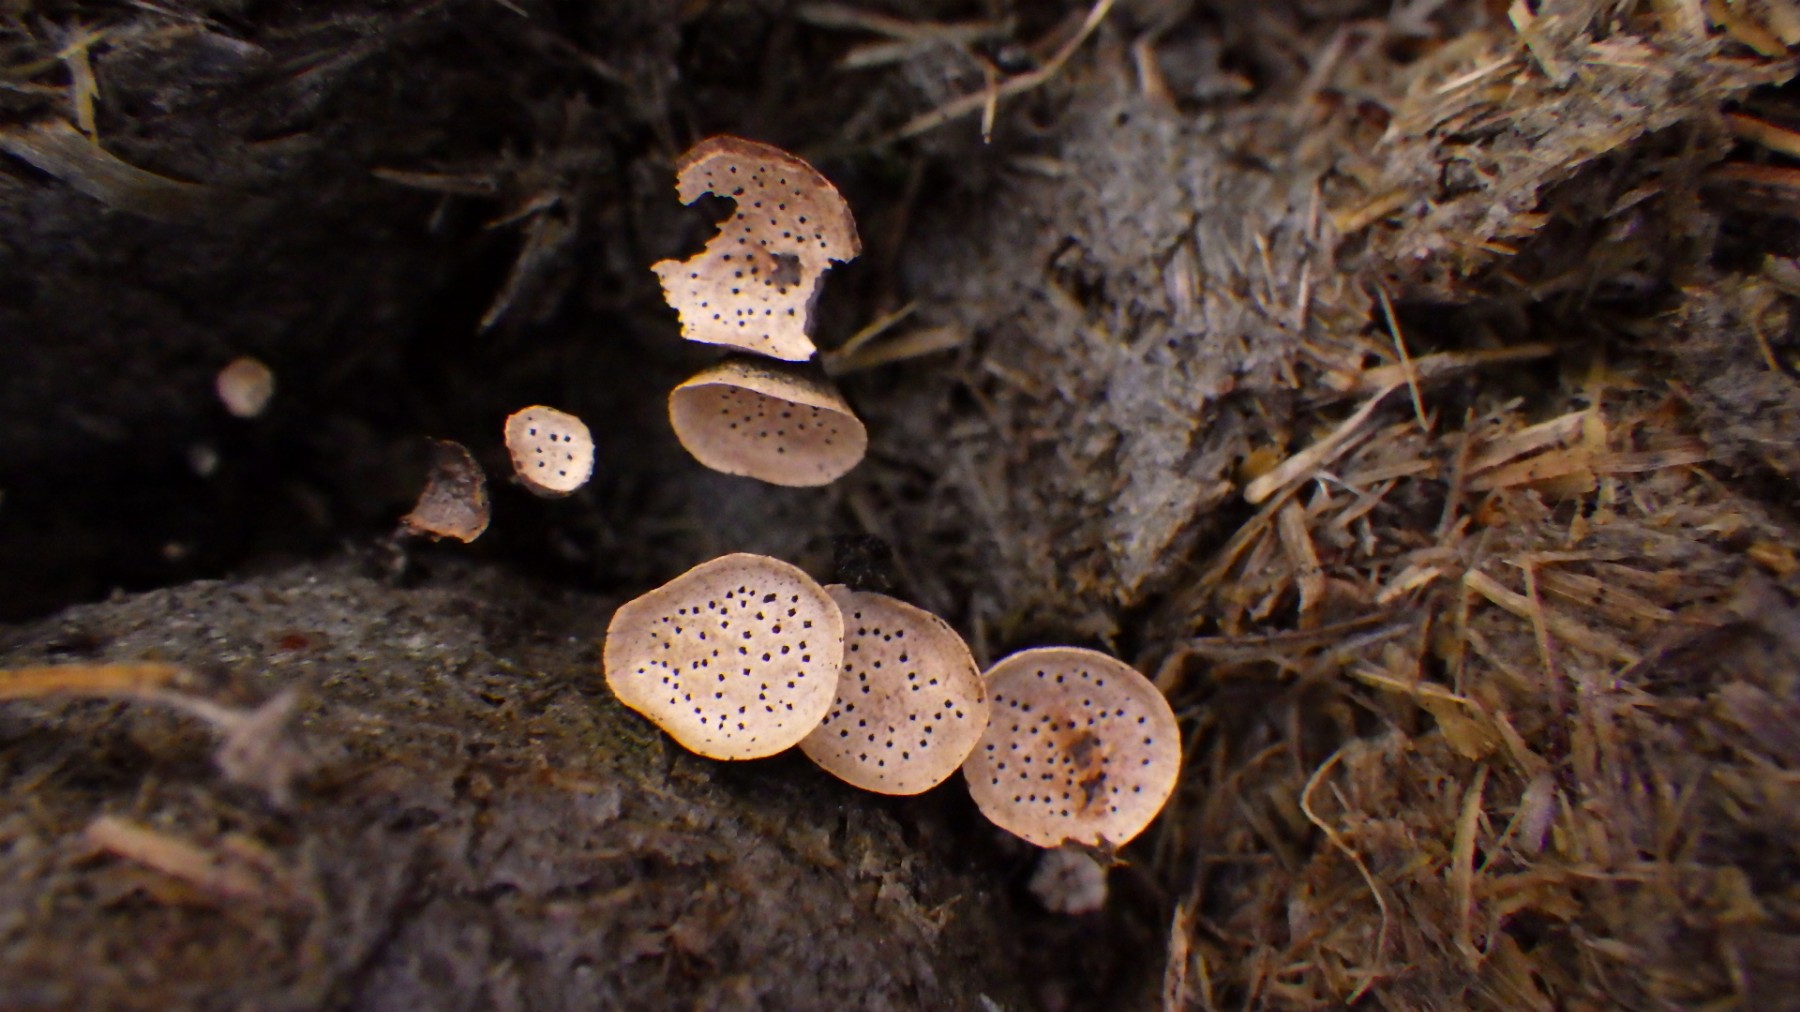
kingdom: Fungi
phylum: Ascomycota
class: Sordariomycetes
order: Xylariales
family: Xylariaceae
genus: Poronia
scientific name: Poronia punctata
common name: stor priksvamp
